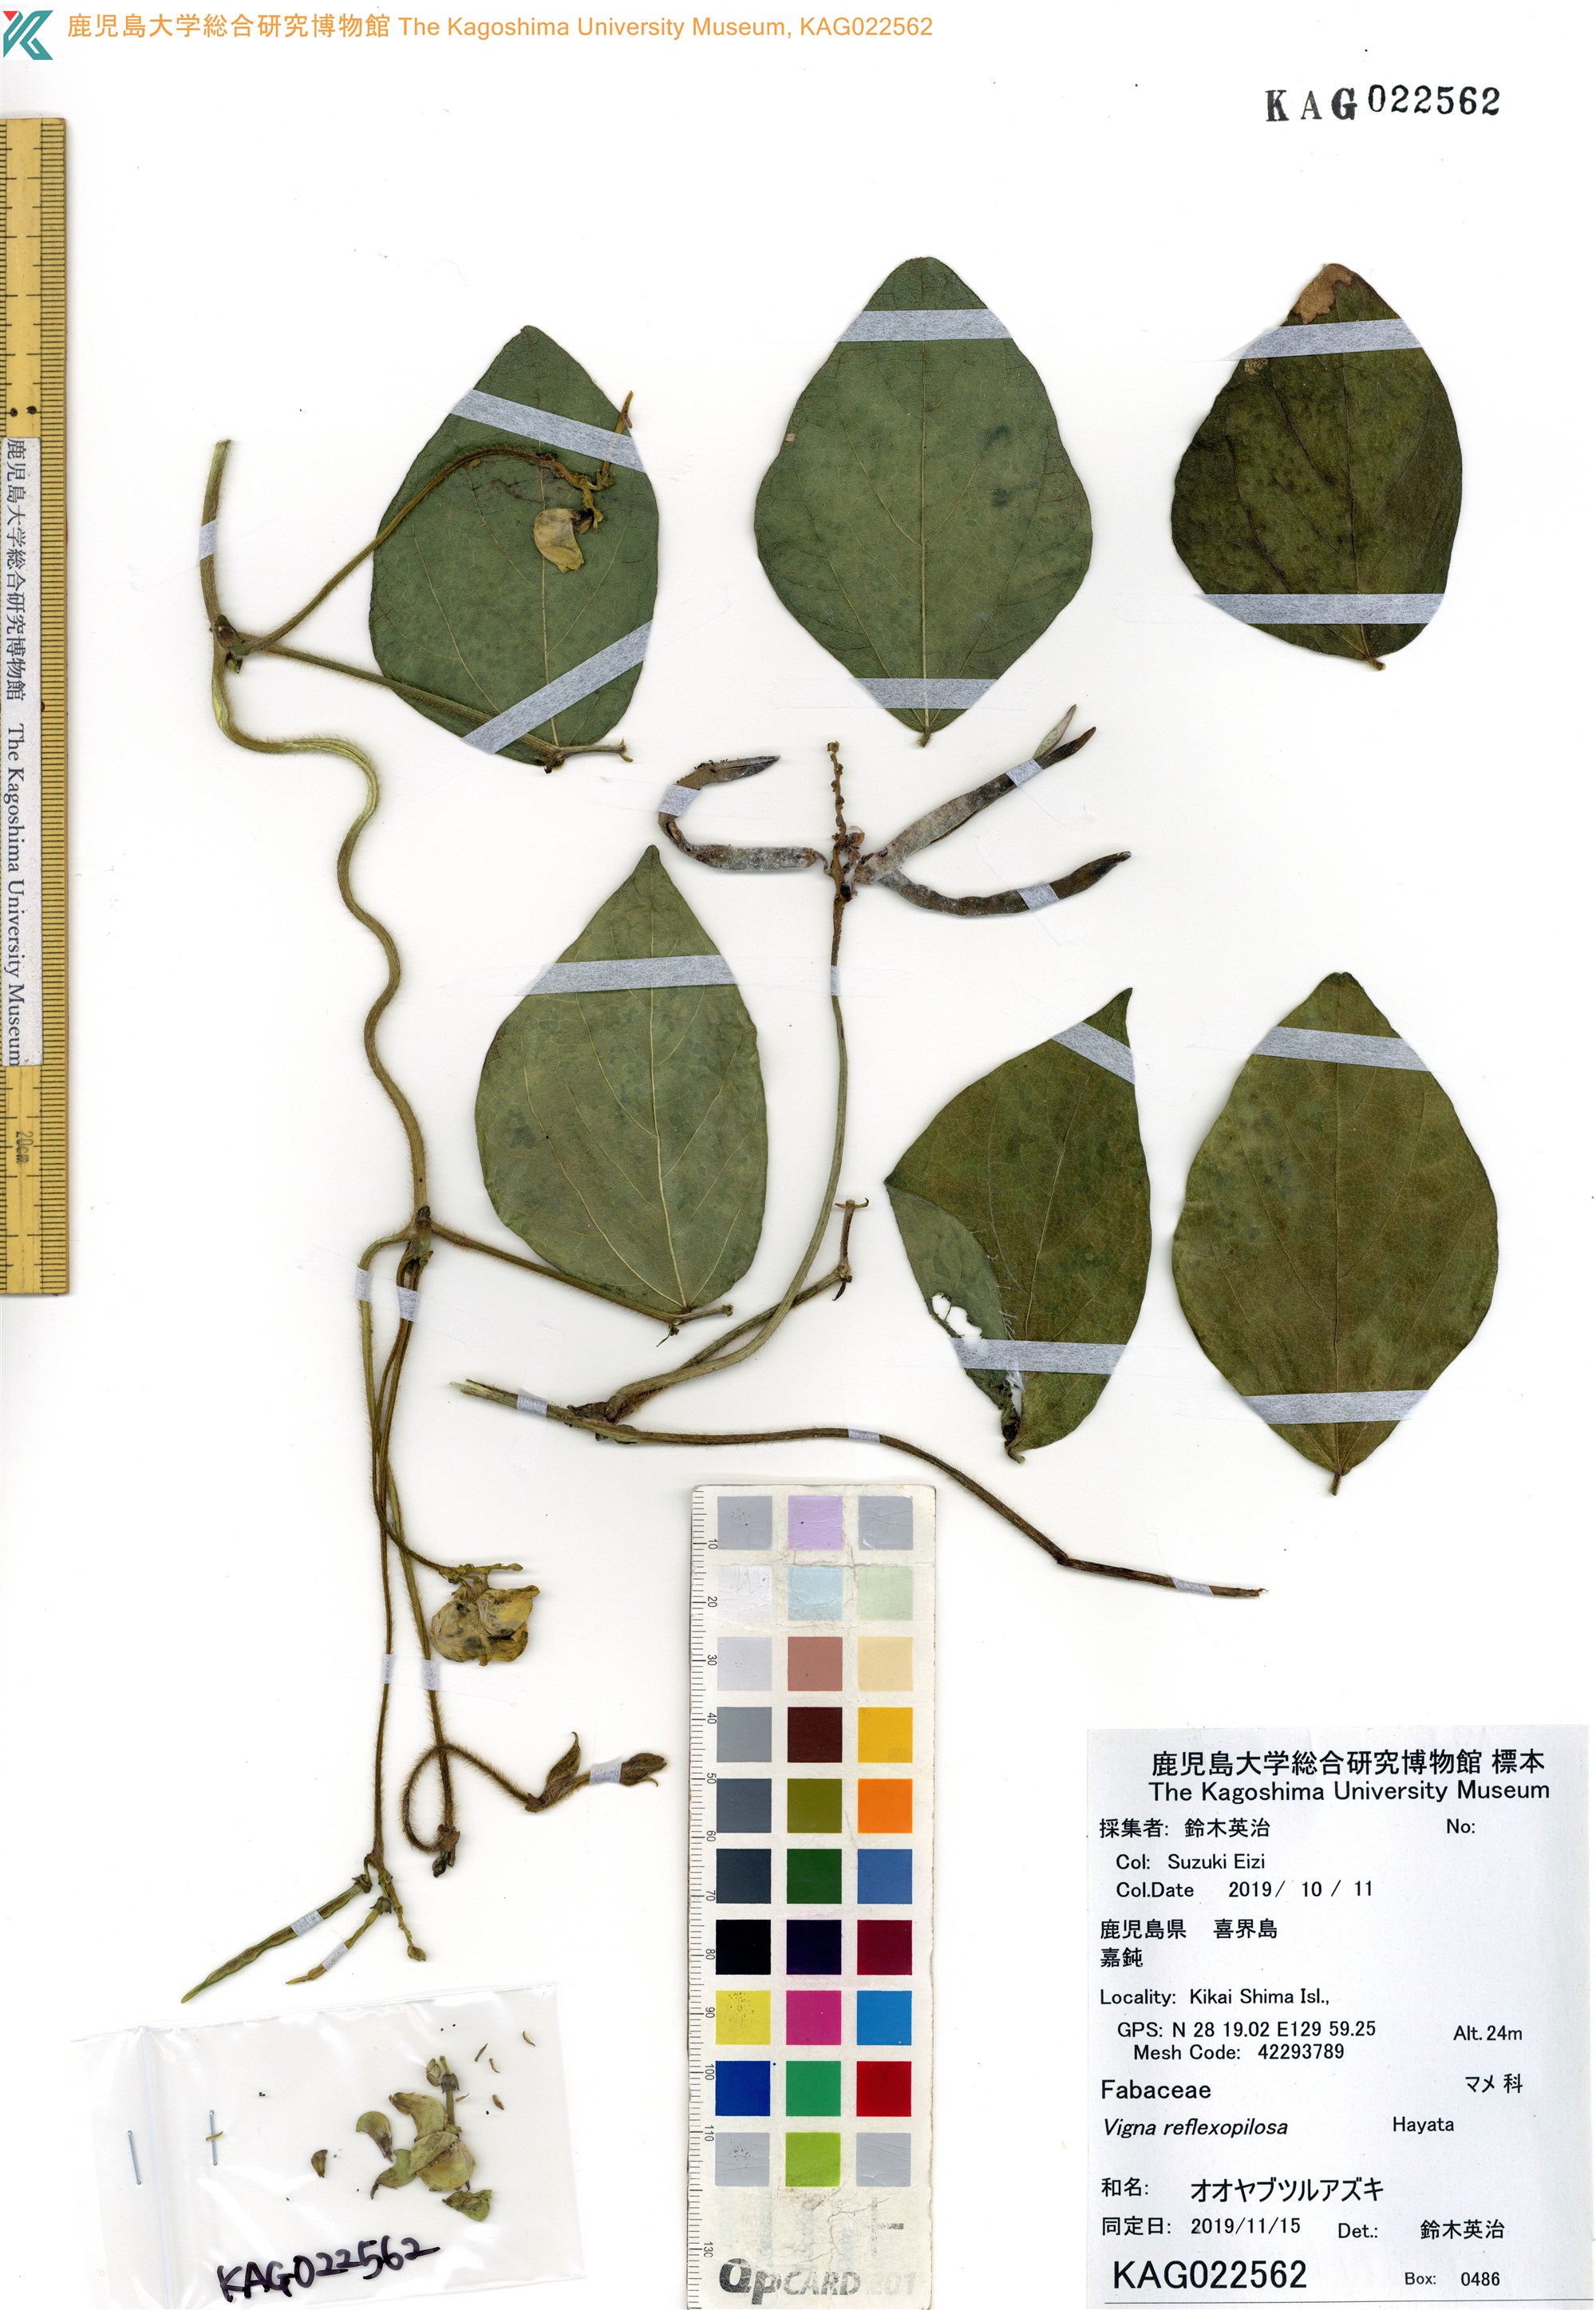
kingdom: Plantae
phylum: Tracheophyta
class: Magnoliopsida
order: Fabales
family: Fabaceae
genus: Vigna
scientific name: Vigna reflexopilosa
